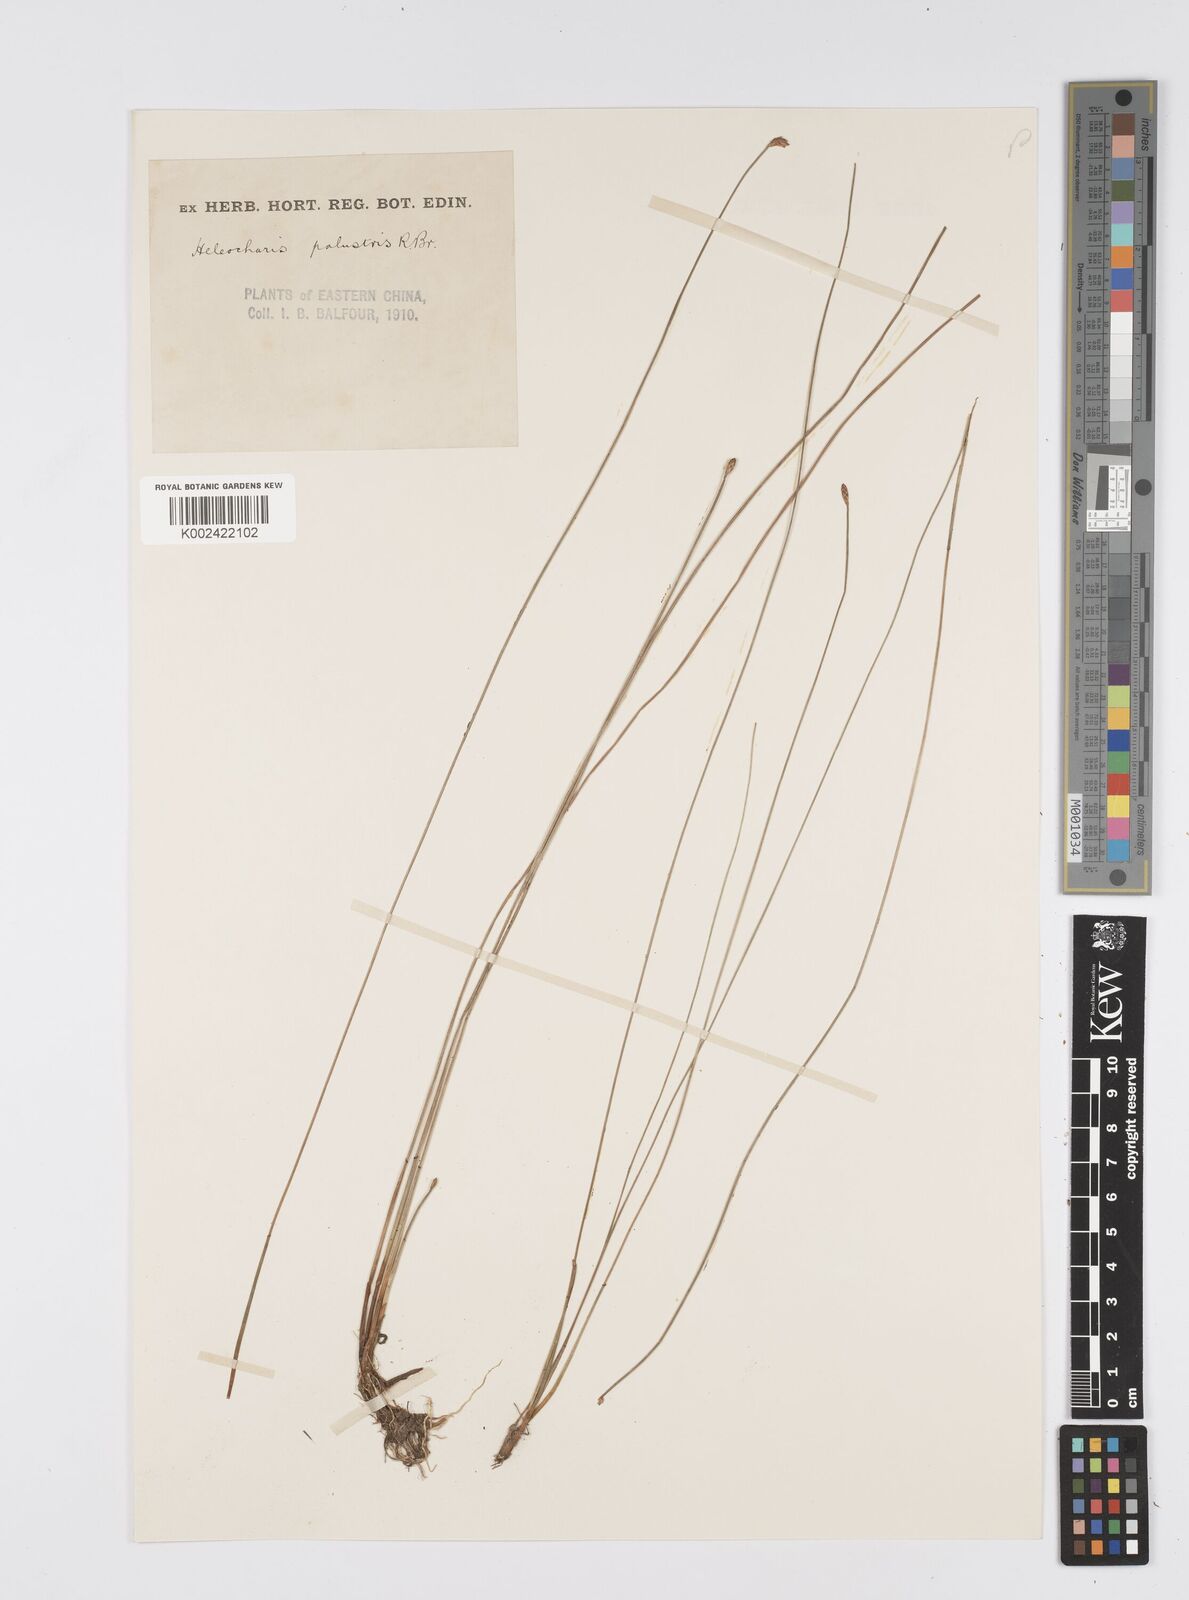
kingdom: Plantae
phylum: Tracheophyta
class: Liliopsida
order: Poales
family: Cyperaceae
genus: Eleocharis
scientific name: Eleocharis palustris
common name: Common spike-rush
